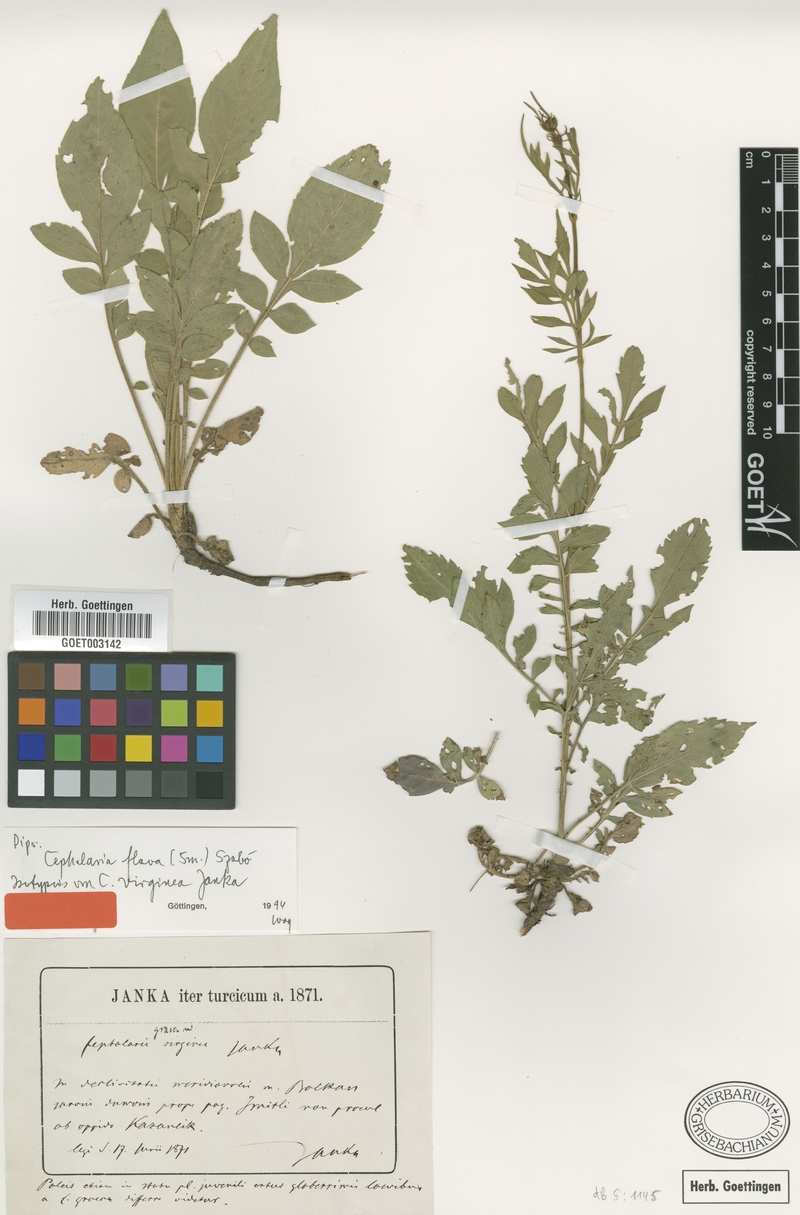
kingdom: Plantae
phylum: Tracheophyta
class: Magnoliopsida
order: Dipsacales
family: Caprifoliaceae
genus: Cephalaria
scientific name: Cephalaria flava
